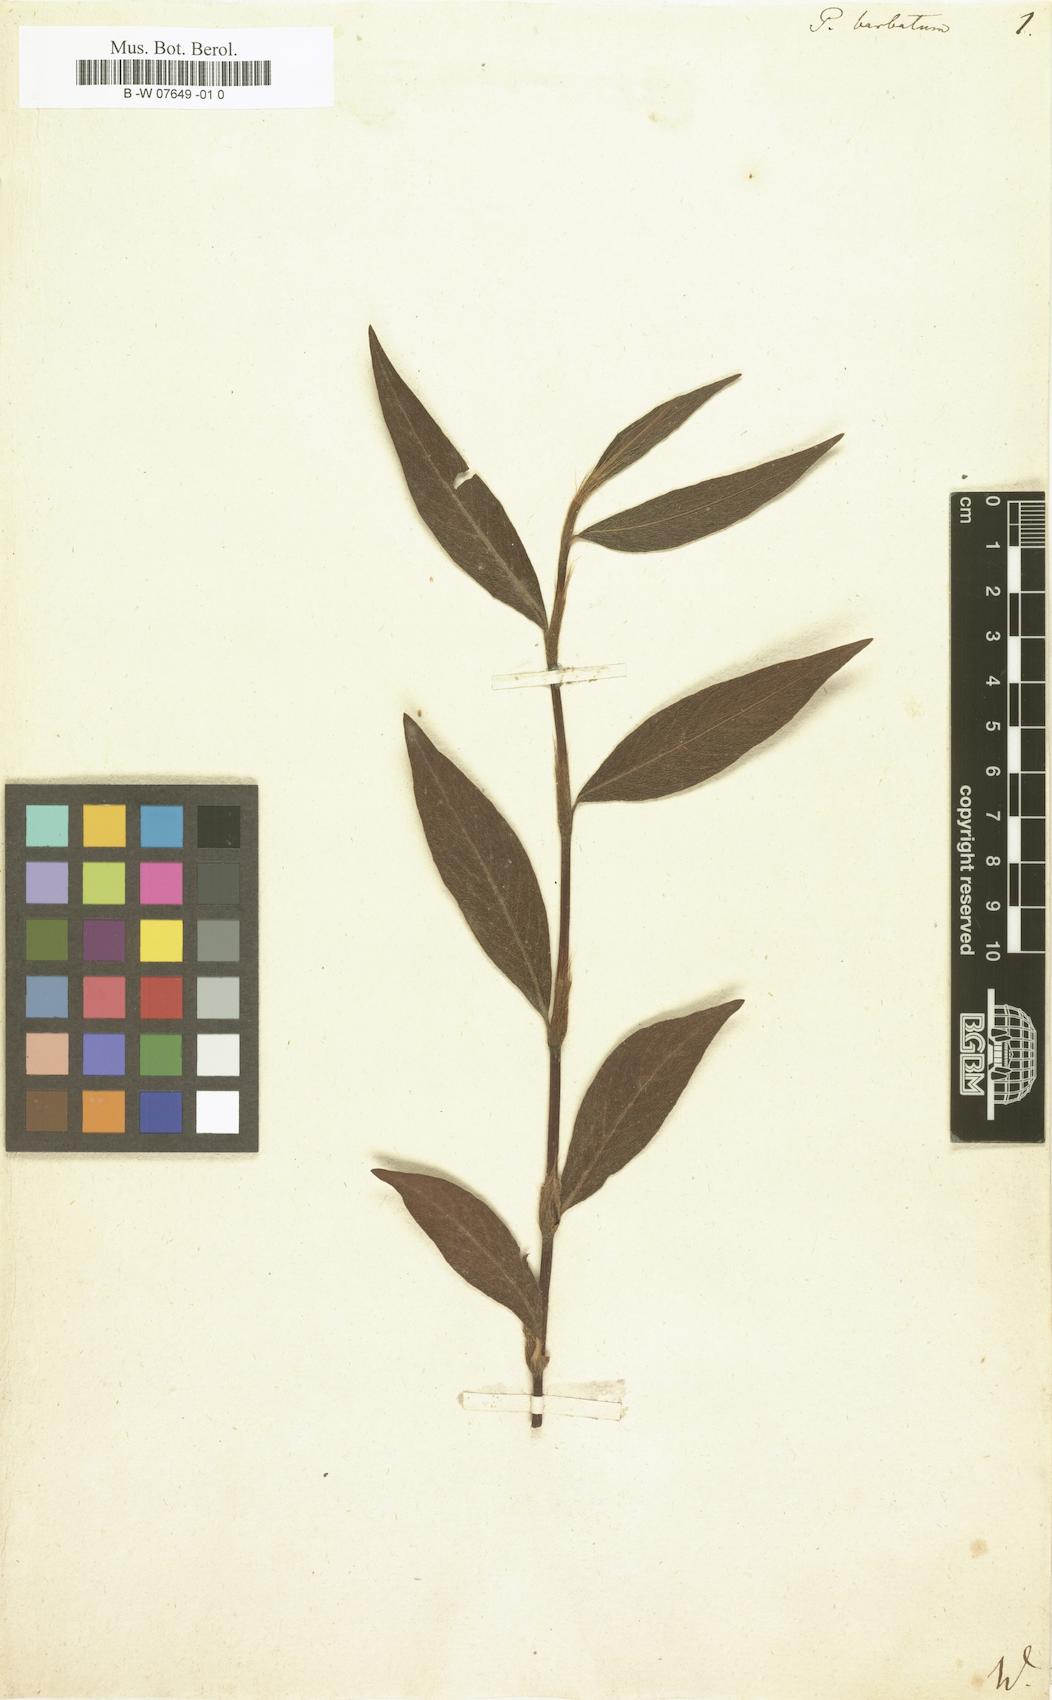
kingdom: Plantae
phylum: Tracheophyta
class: Magnoliopsida
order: Caryophyllales
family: Polygonaceae
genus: Persicaria
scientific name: Persicaria barbata
